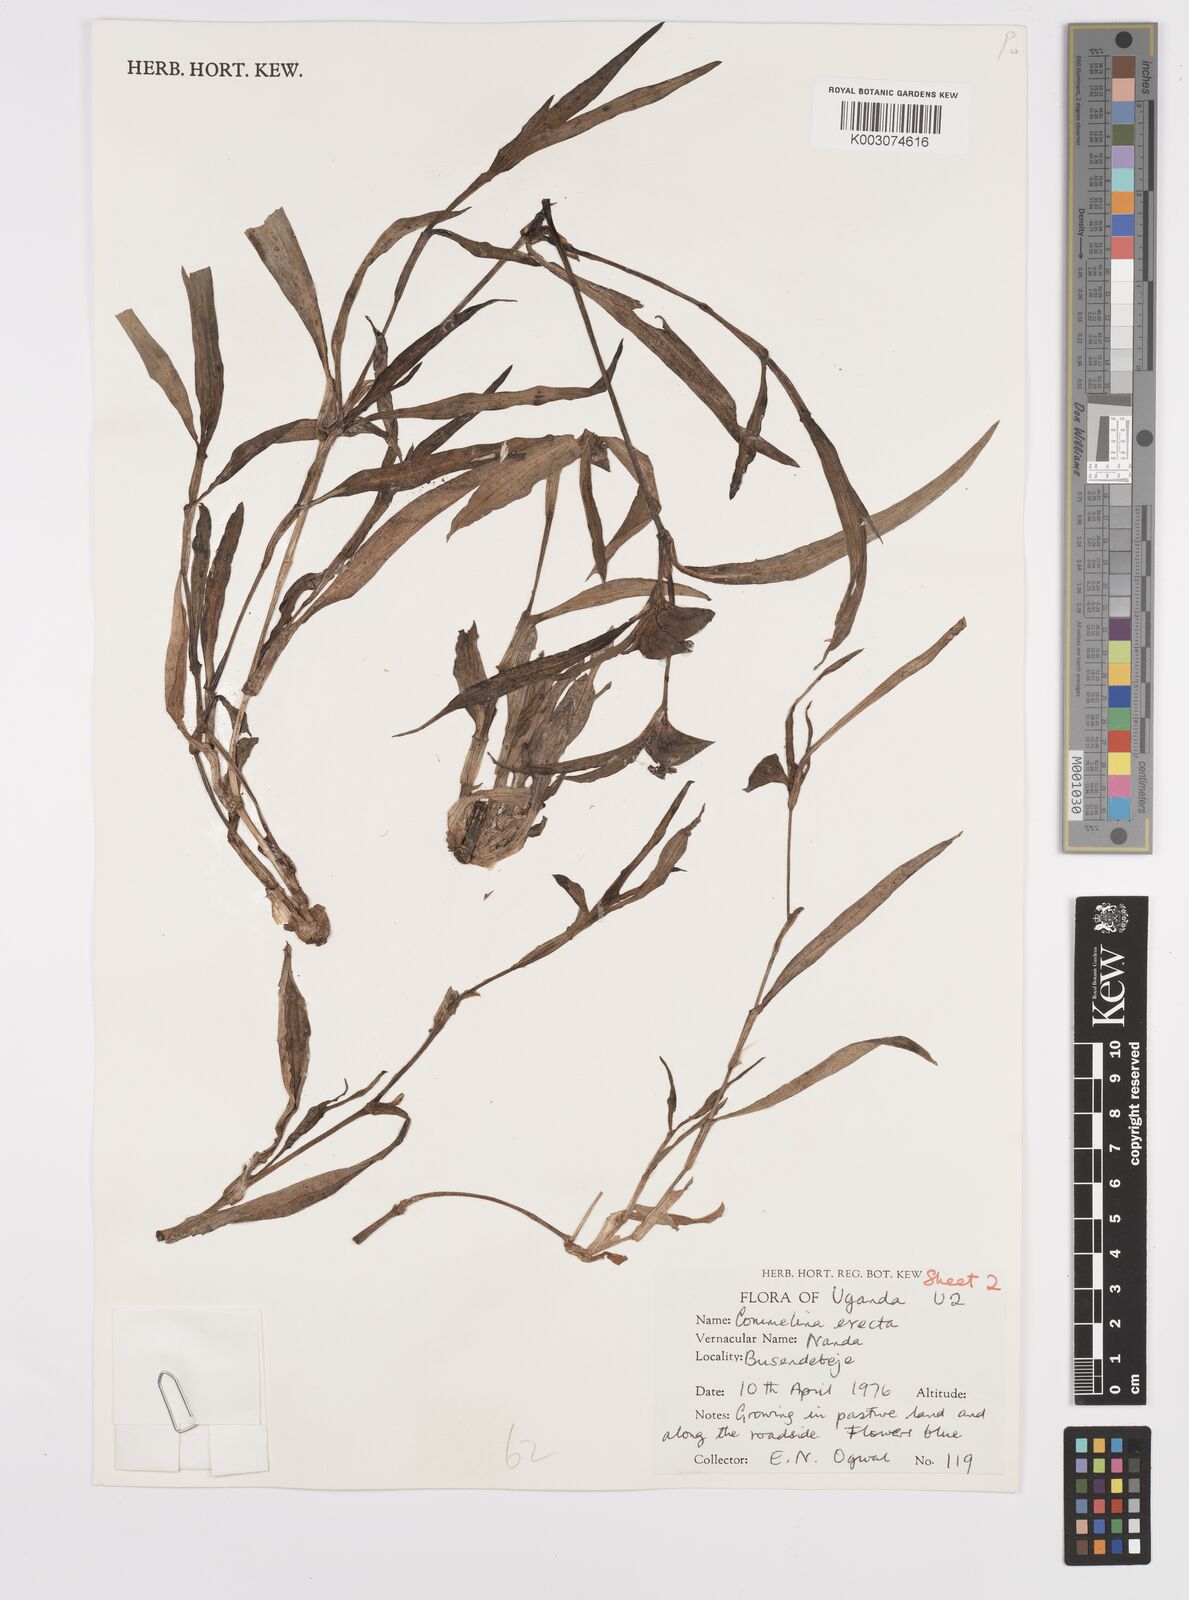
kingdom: Plantae
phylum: Tracheophyta
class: Liliopsida
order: Commelinales
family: Commelinaceae
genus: Commelina
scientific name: Commelina erecta
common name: Blousel blommetjie
